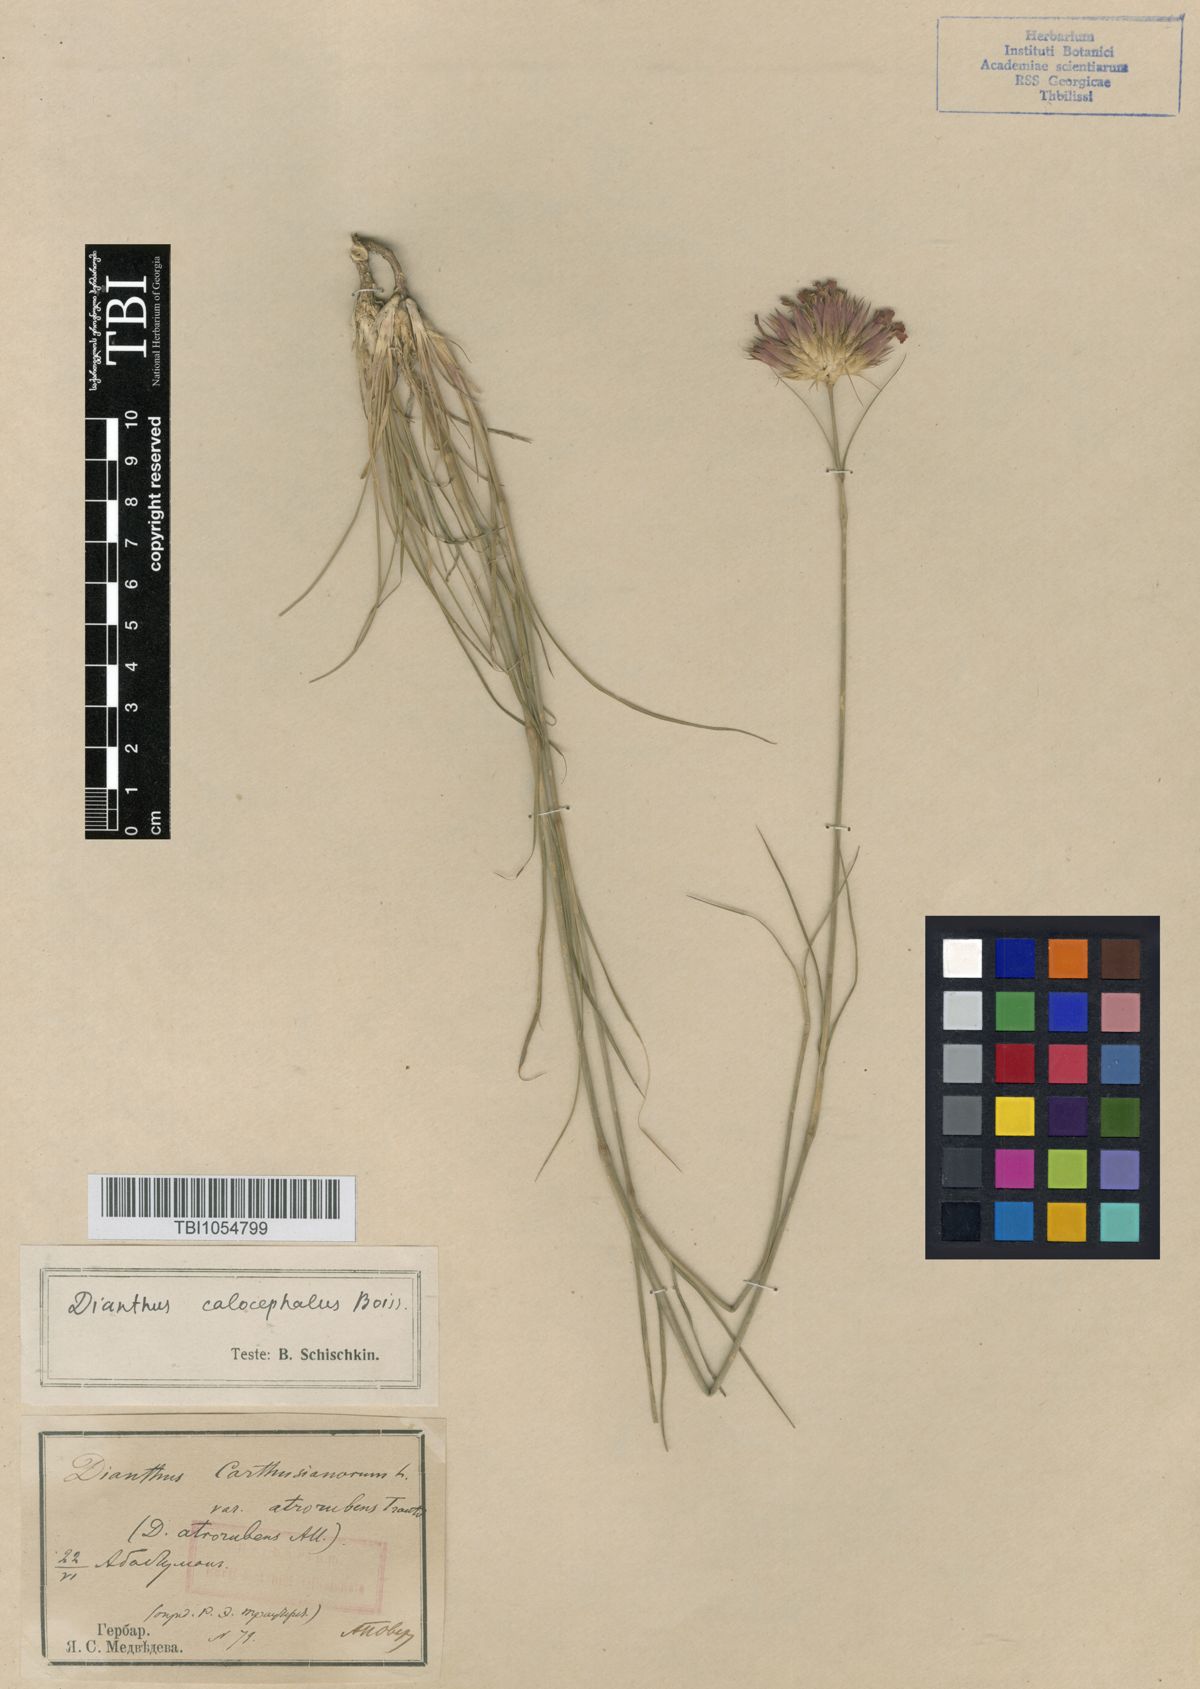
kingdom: Plantae
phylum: Tracheophyta
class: Magnoliopsida
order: Caryophyllales
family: Caryophyllaceae
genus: Dianthus
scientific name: Dianthus cruentus
